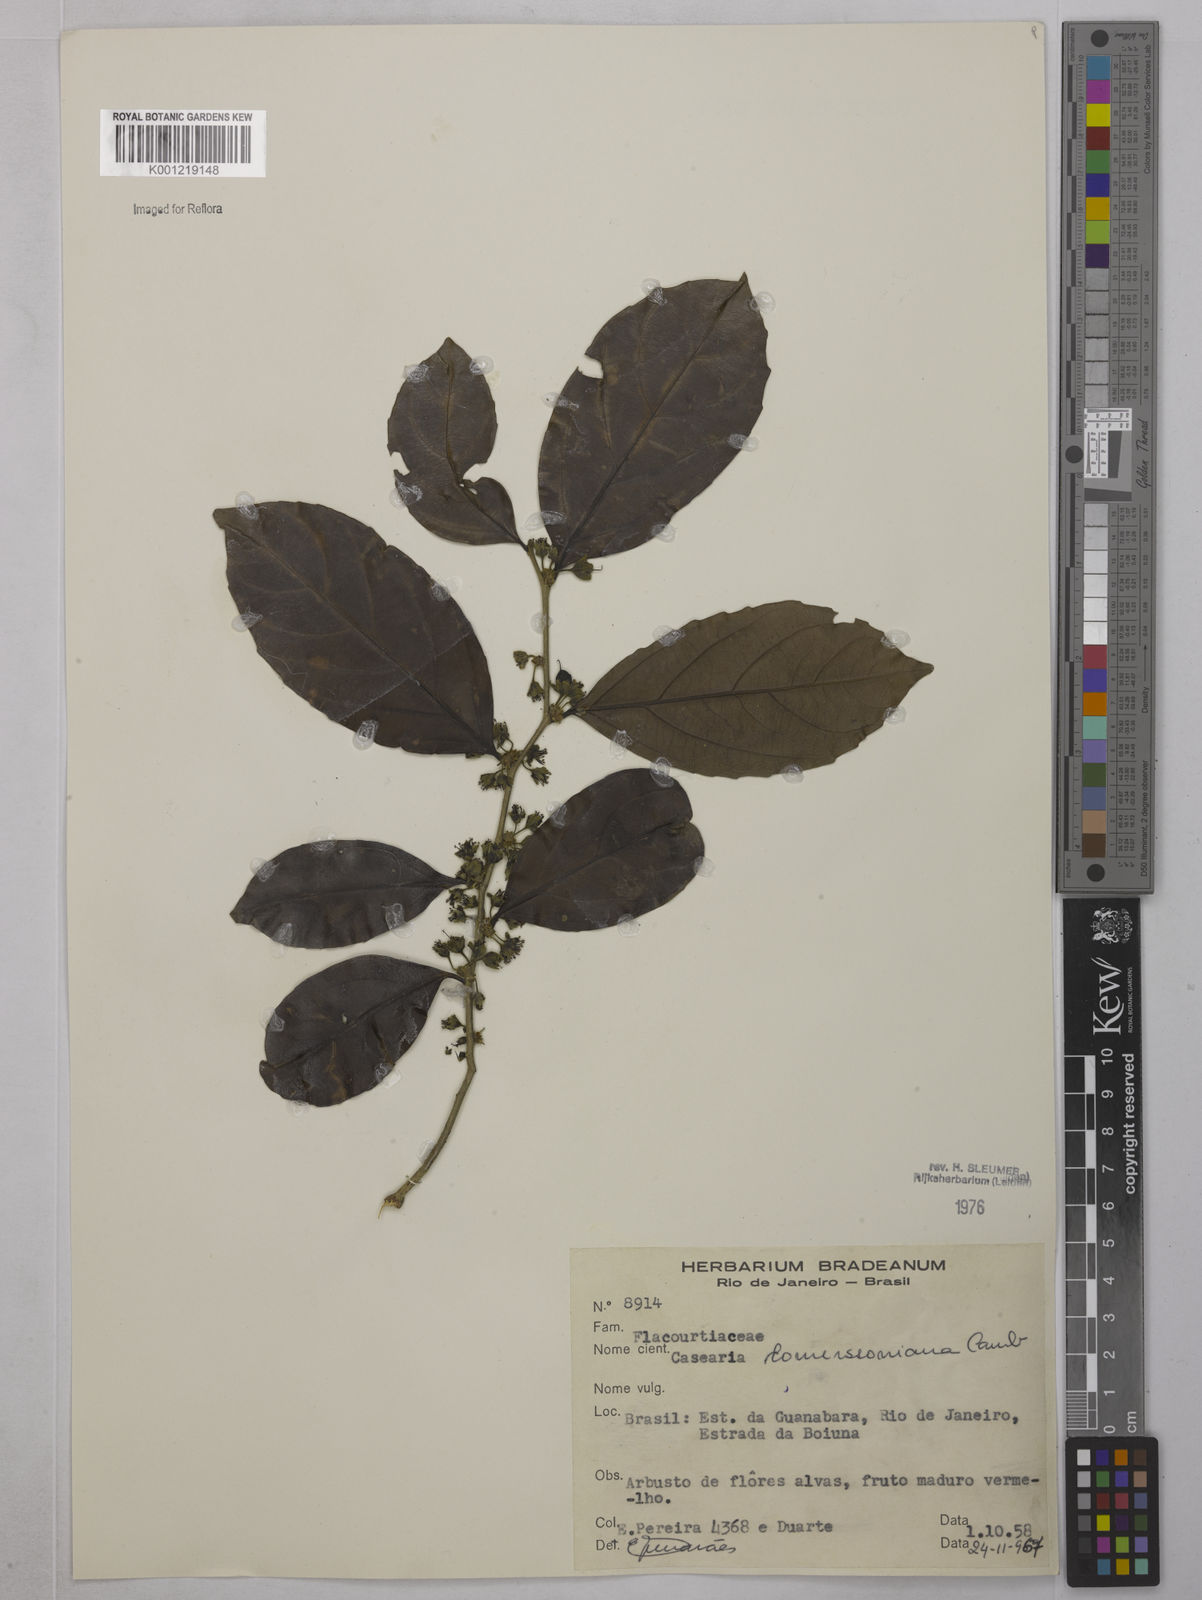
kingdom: Plantae
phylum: Tracheophyta
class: Magnoliopsida
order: Malpighiales
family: Salicaceae
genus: Piparea
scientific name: Piparea dentata
